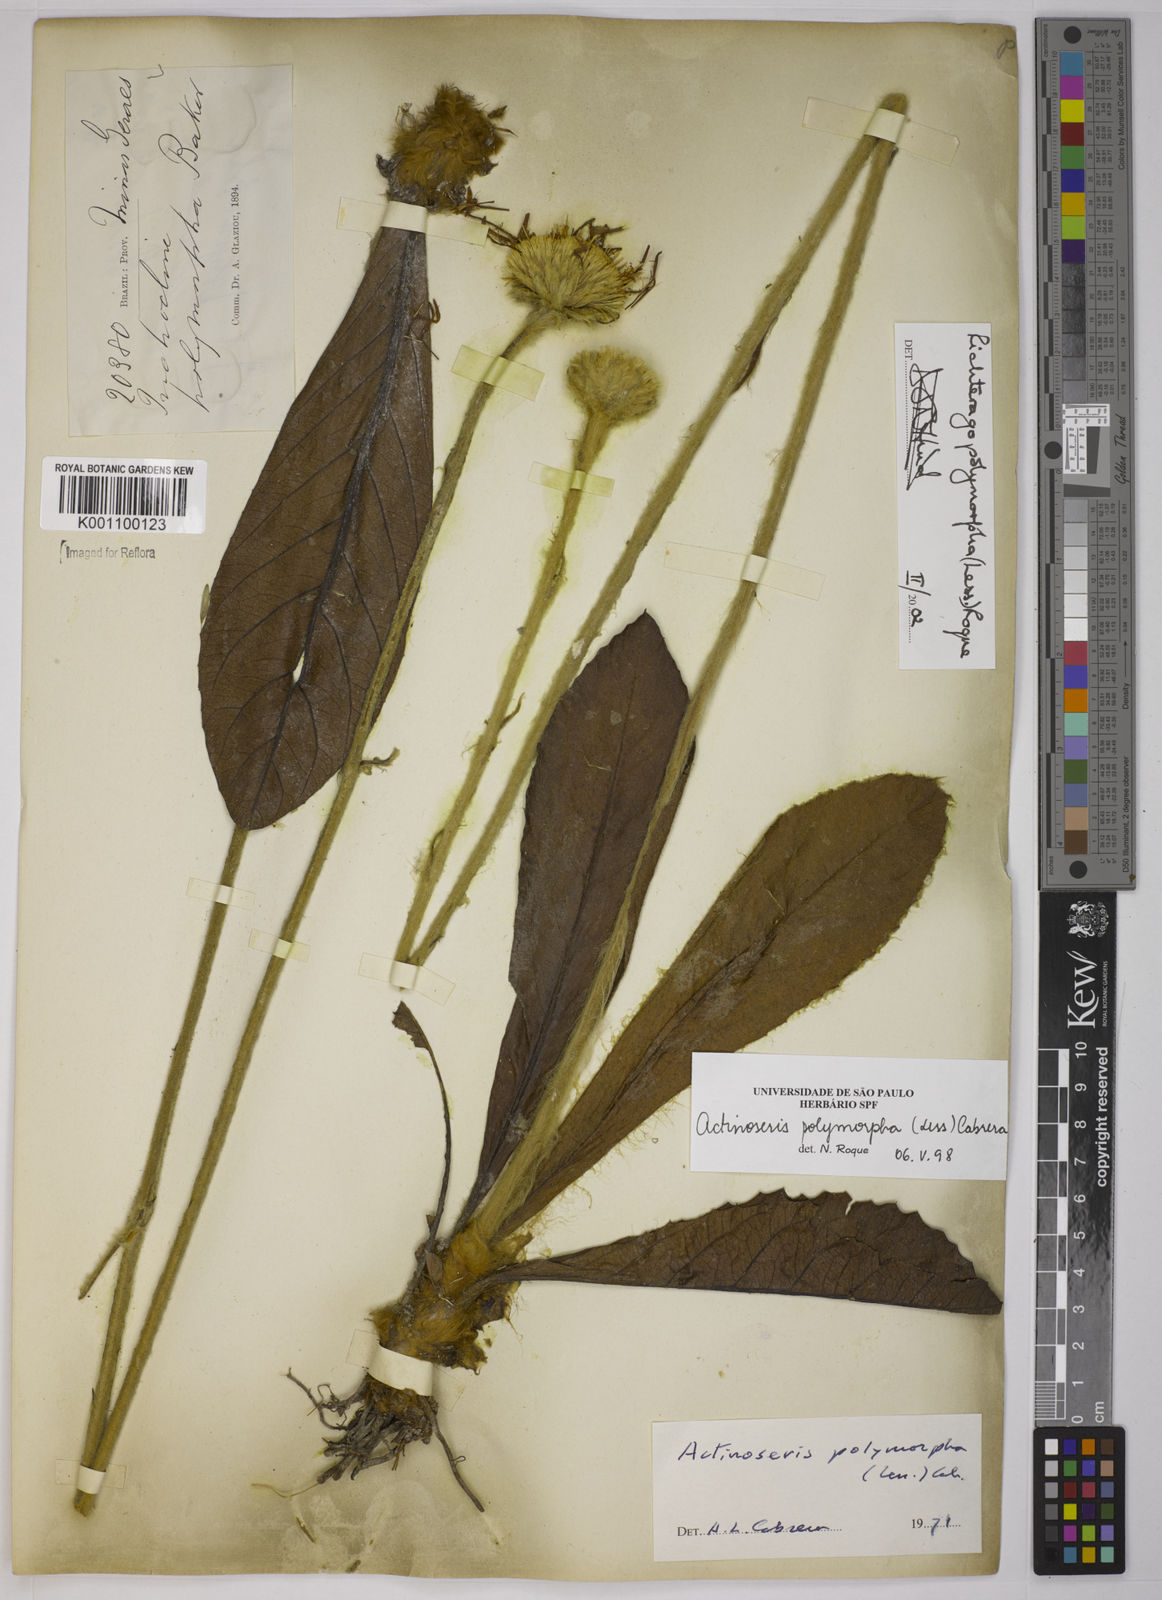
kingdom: Plantae
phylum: Tracheophyta
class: Magnoliopsida
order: Asterales
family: Asteraceae
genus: Richterago
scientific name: Richterago polymorpha
